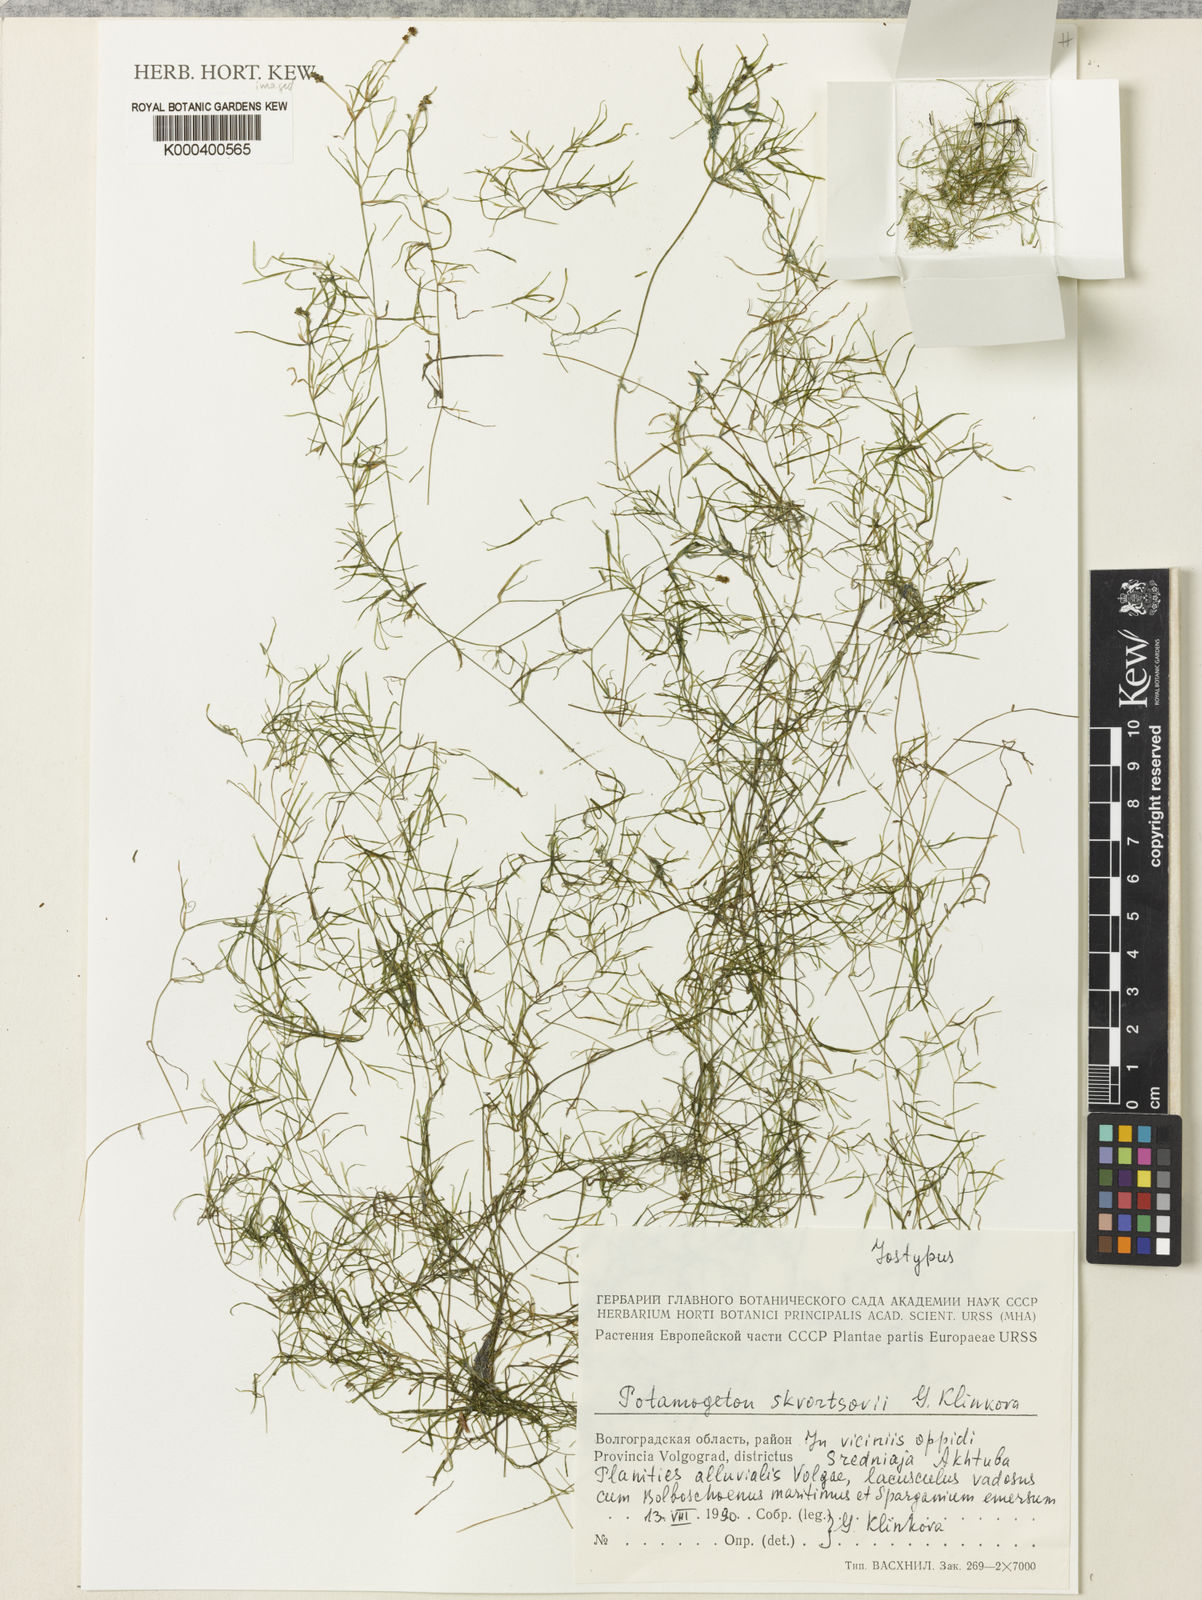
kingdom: Plantae
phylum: Tracheophyta
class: Liliopsida
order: Alismatales
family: Potamogetonaceae
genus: Potamogeton
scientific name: Potamogeton skvortsovii
